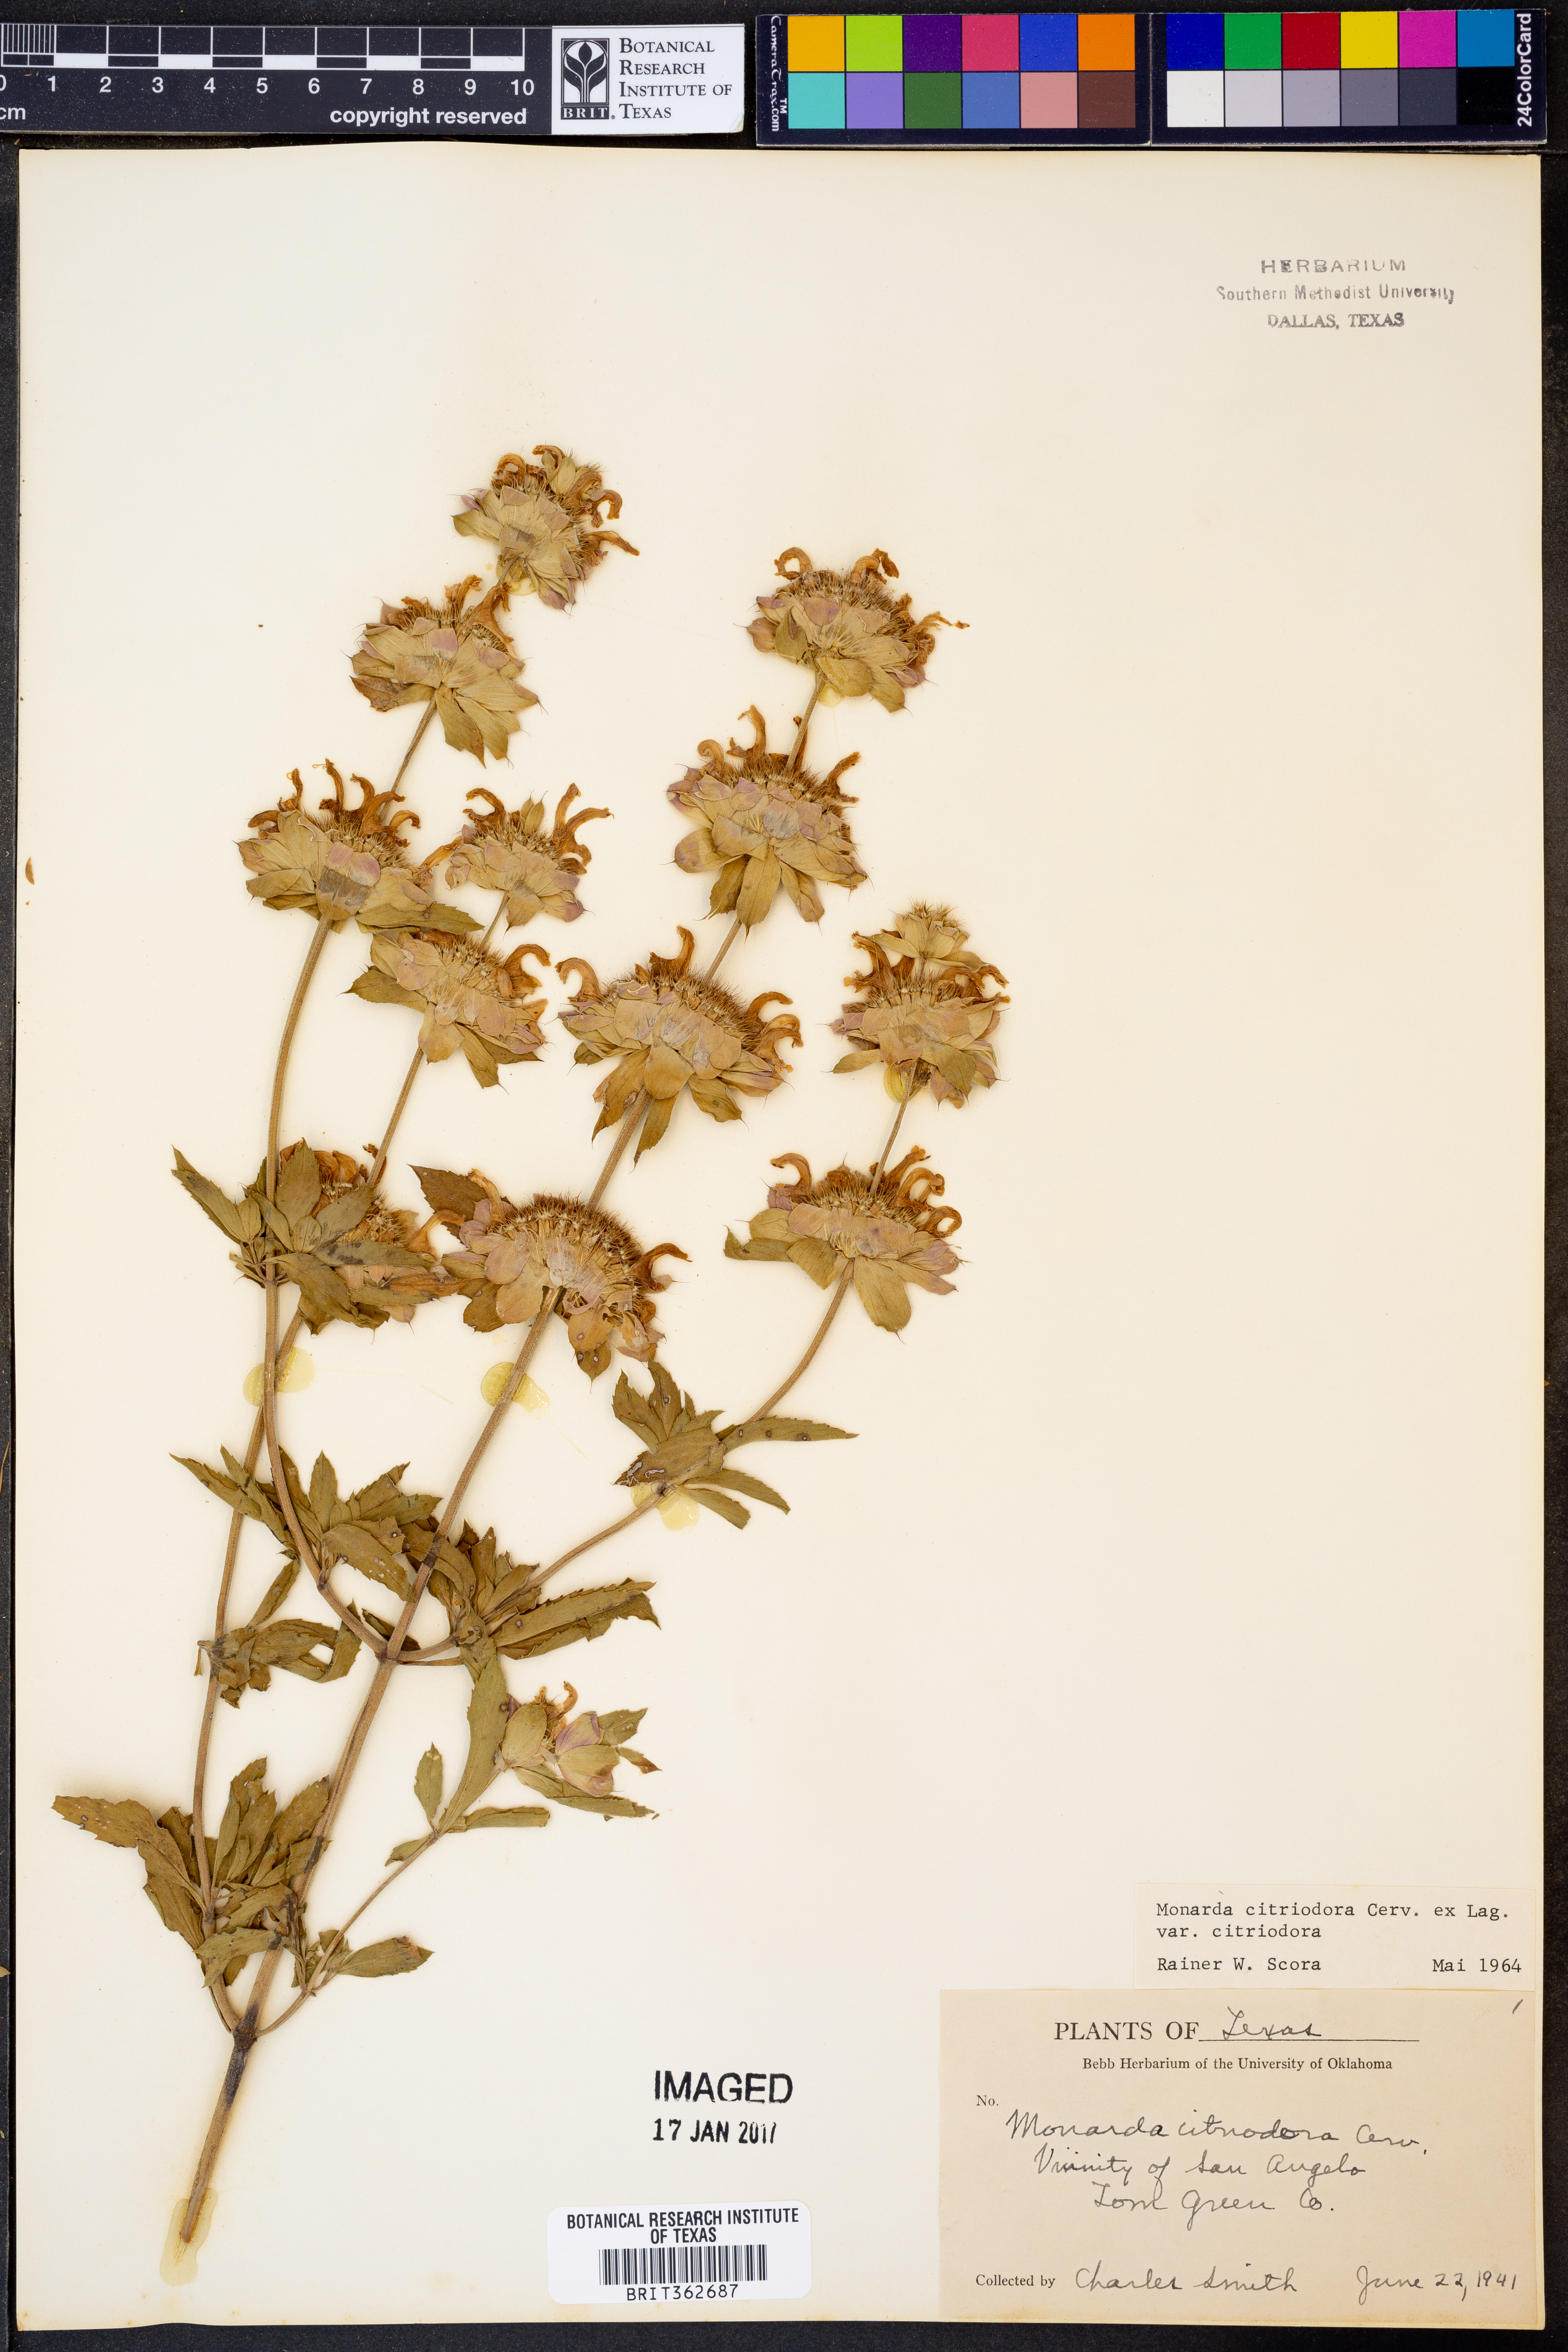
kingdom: Plantae
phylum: Tracheophyta
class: Magnoliopsida
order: Lamiales
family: Lamiaceae
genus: Monarda
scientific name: Monarda citriodora
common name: Lemon beebalm
